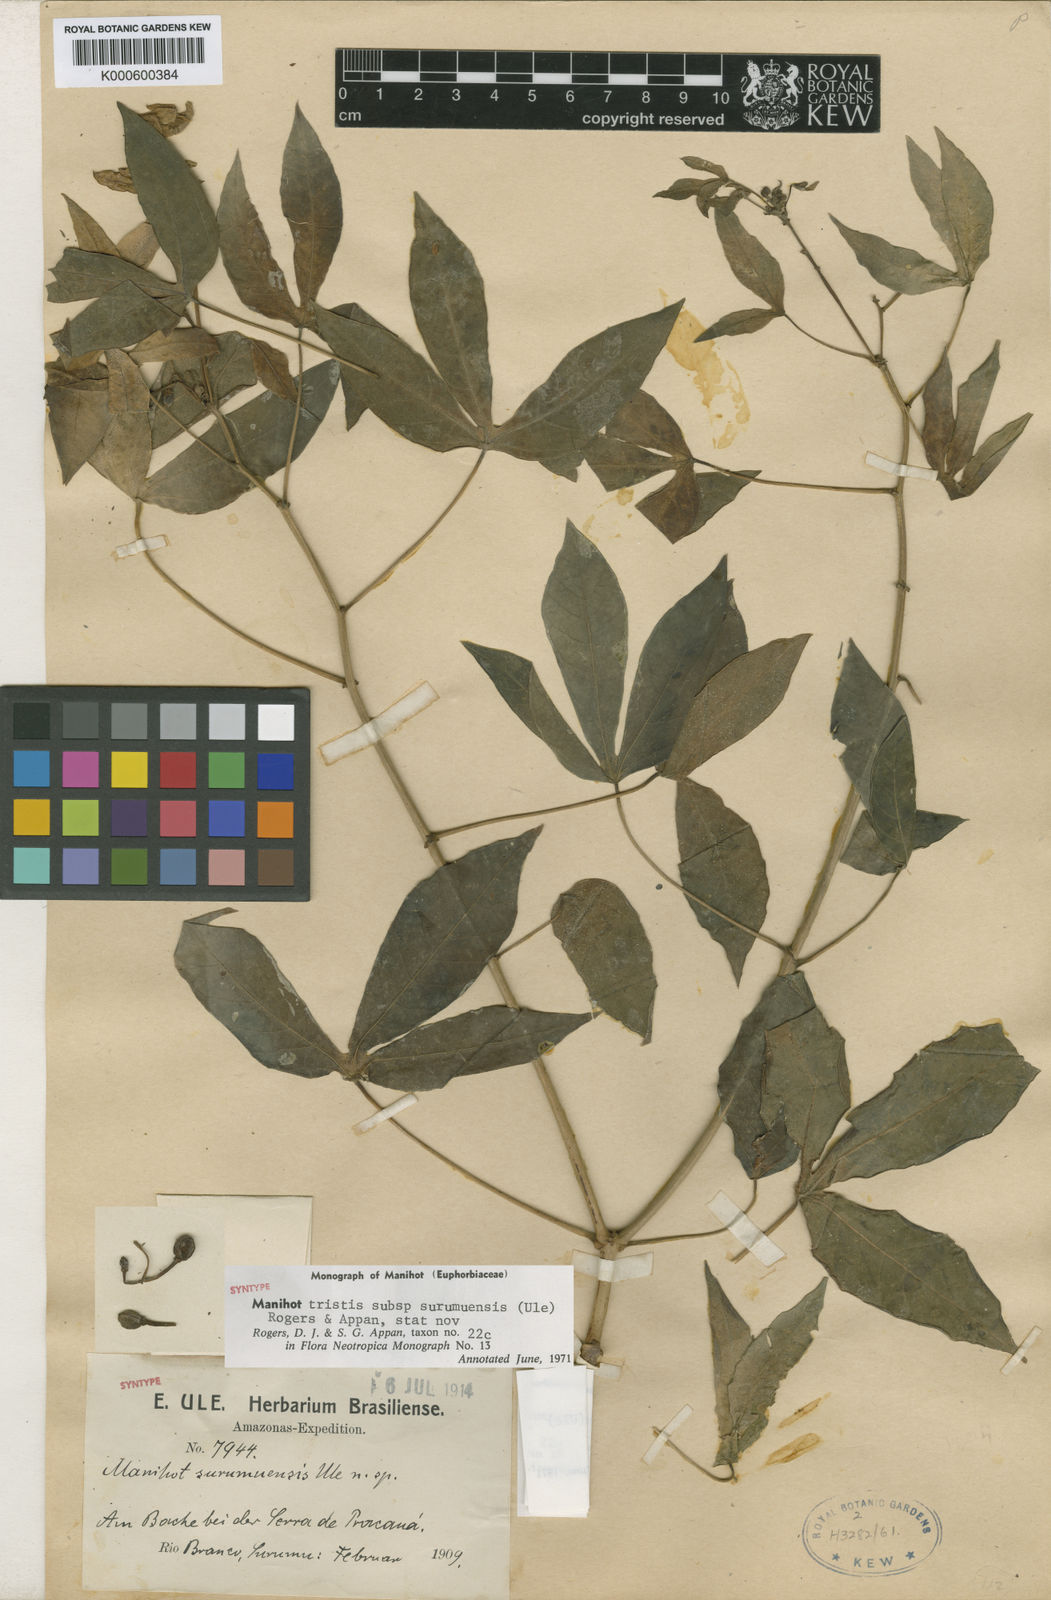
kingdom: Plantae
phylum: Tracheophyta
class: Magnoliopsida
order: Malpighiales
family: Euphorbiaceae
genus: Manihot
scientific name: Manihot tristis
